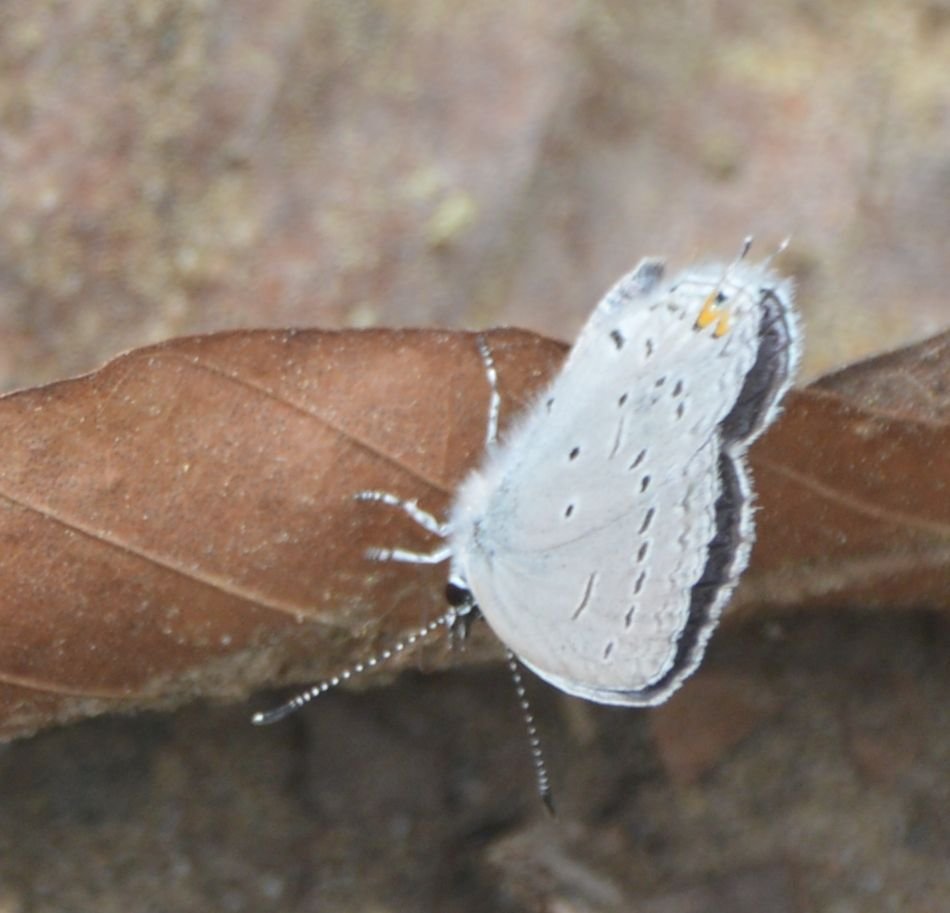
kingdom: Animalia
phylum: Arthropoda
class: Insecta
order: Lepidoptera
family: Lycaenidae
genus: Elkalyce
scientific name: Elkalyce comyntas
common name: Eastern Tailed-Blue
